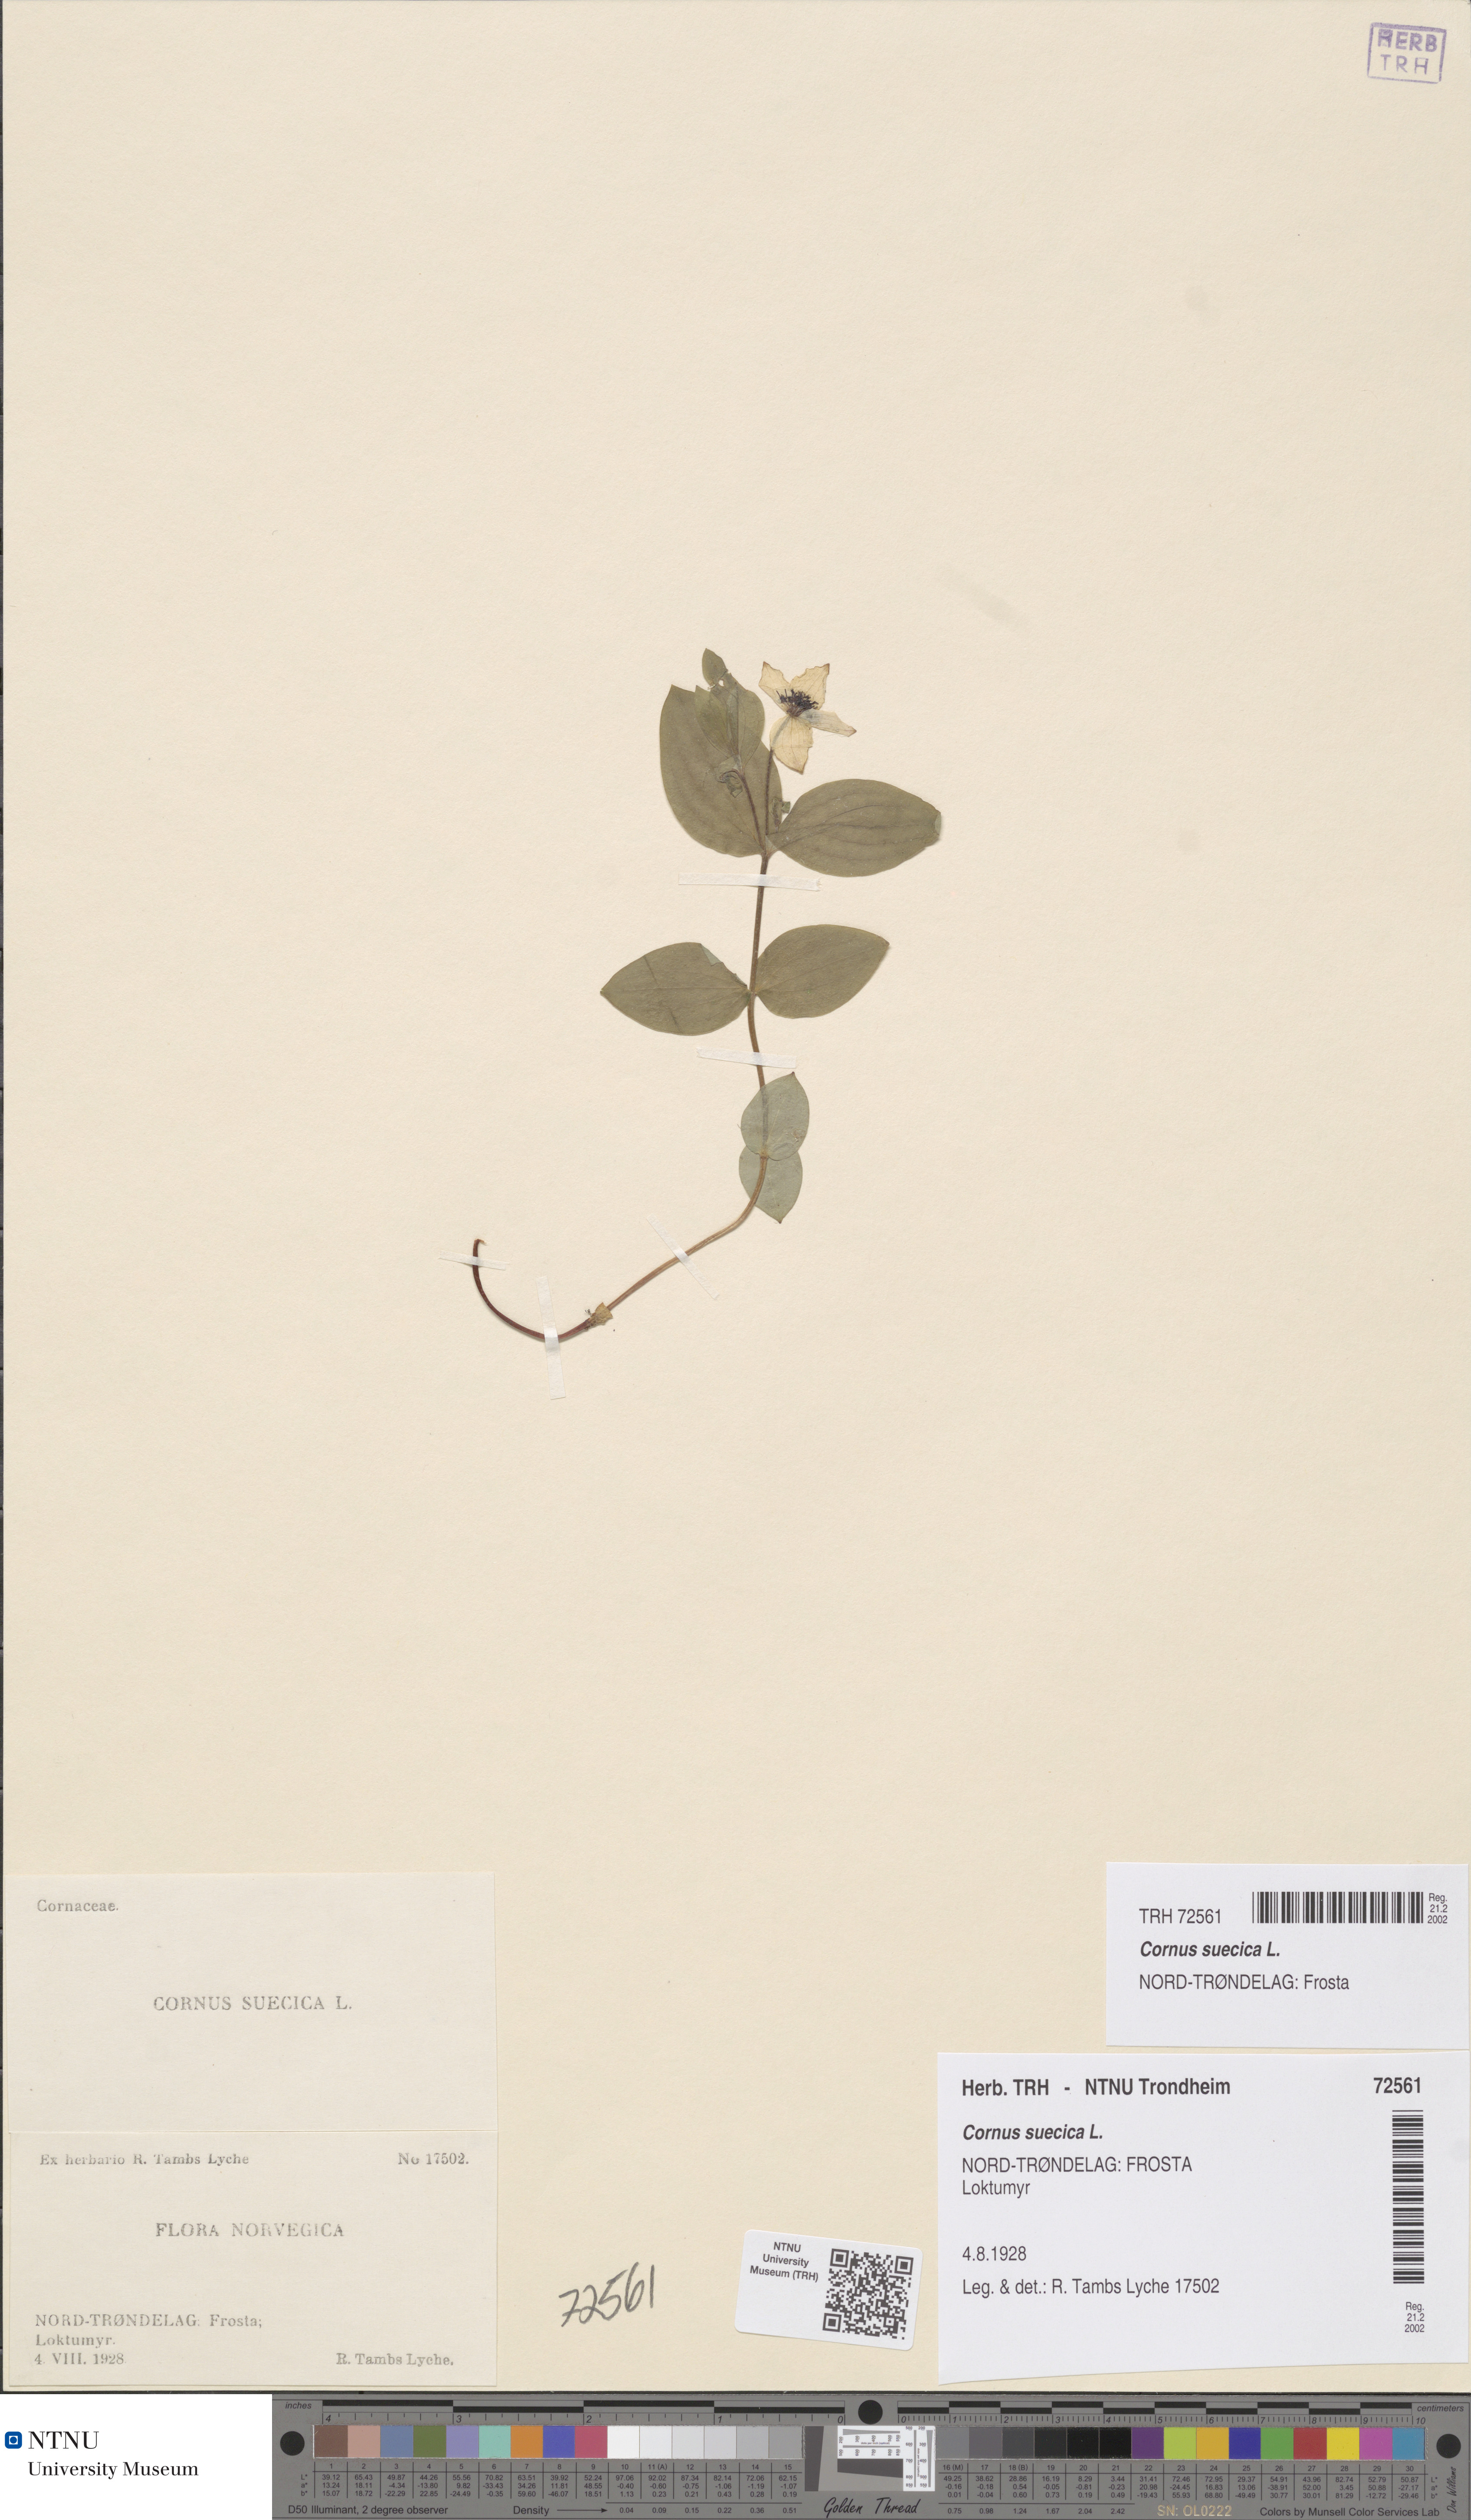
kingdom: Plantae
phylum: Tracheophyta
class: Magnoliopsida
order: Cornales
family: Cornaceae
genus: Cornus
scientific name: Cornus suecica
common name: Dwarf cornel
